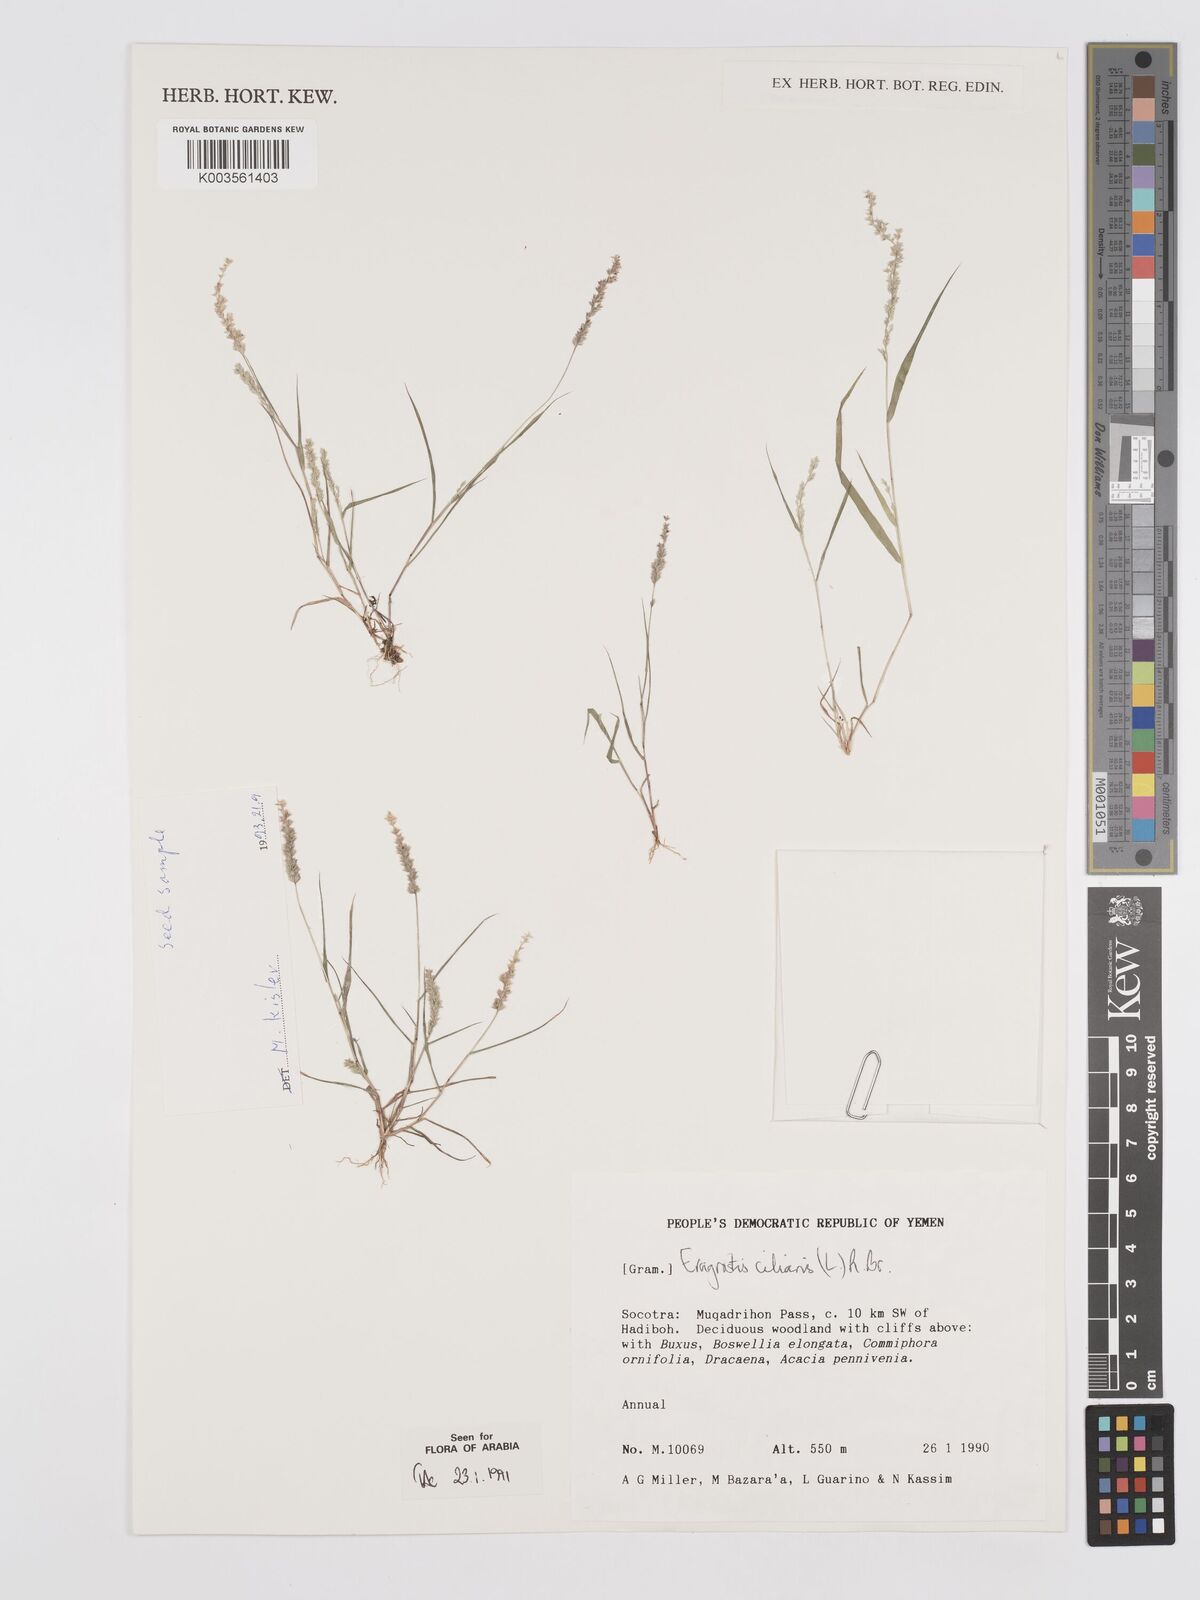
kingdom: Plantae
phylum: Tracheophyta
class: Liliopsida
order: Poales
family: Poaceae
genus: Eragrostis
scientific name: Eragrostis ciliaris
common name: Gophertail lovegrass
